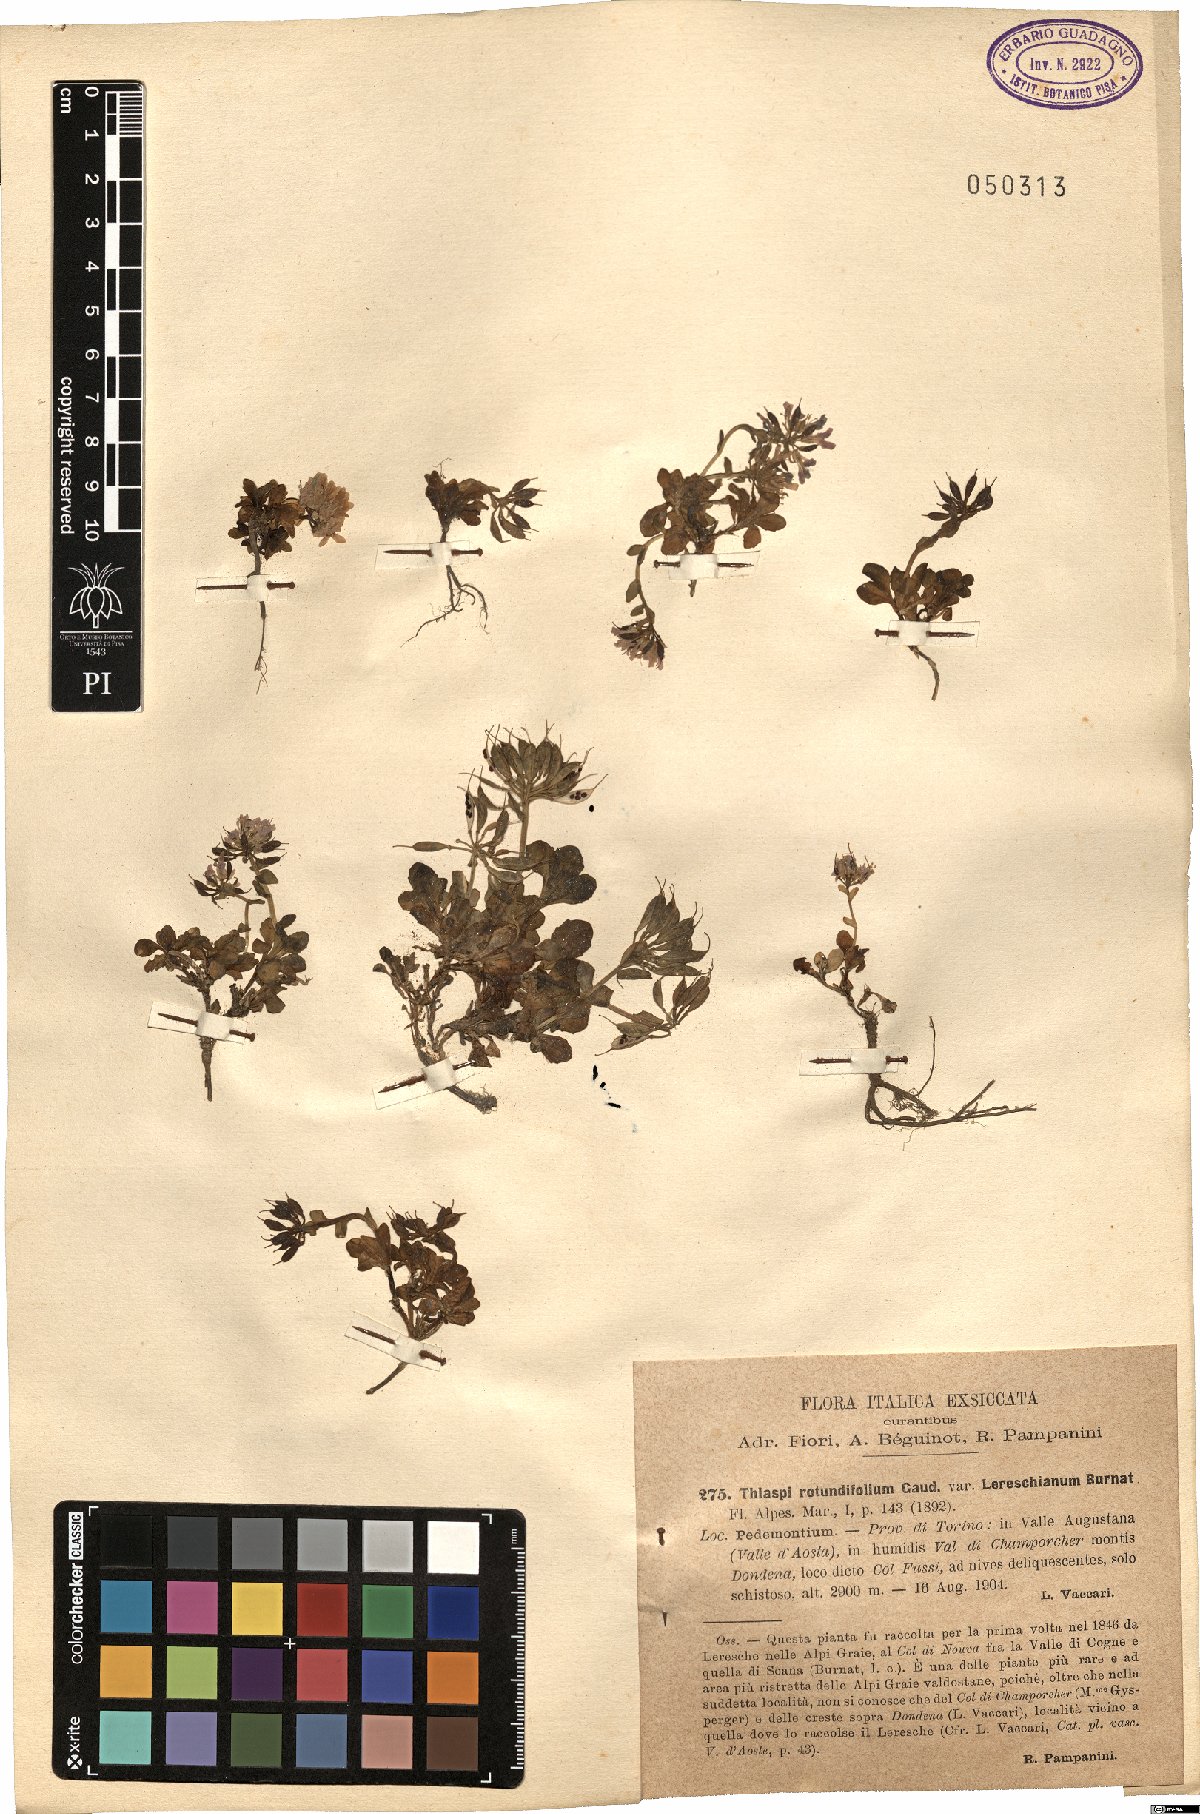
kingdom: Plantae
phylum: Tracheophyta
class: Magnoliopsida
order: Brassicales
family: Brassicaceae
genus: Noccaea
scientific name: Noccaea rotundifolia
